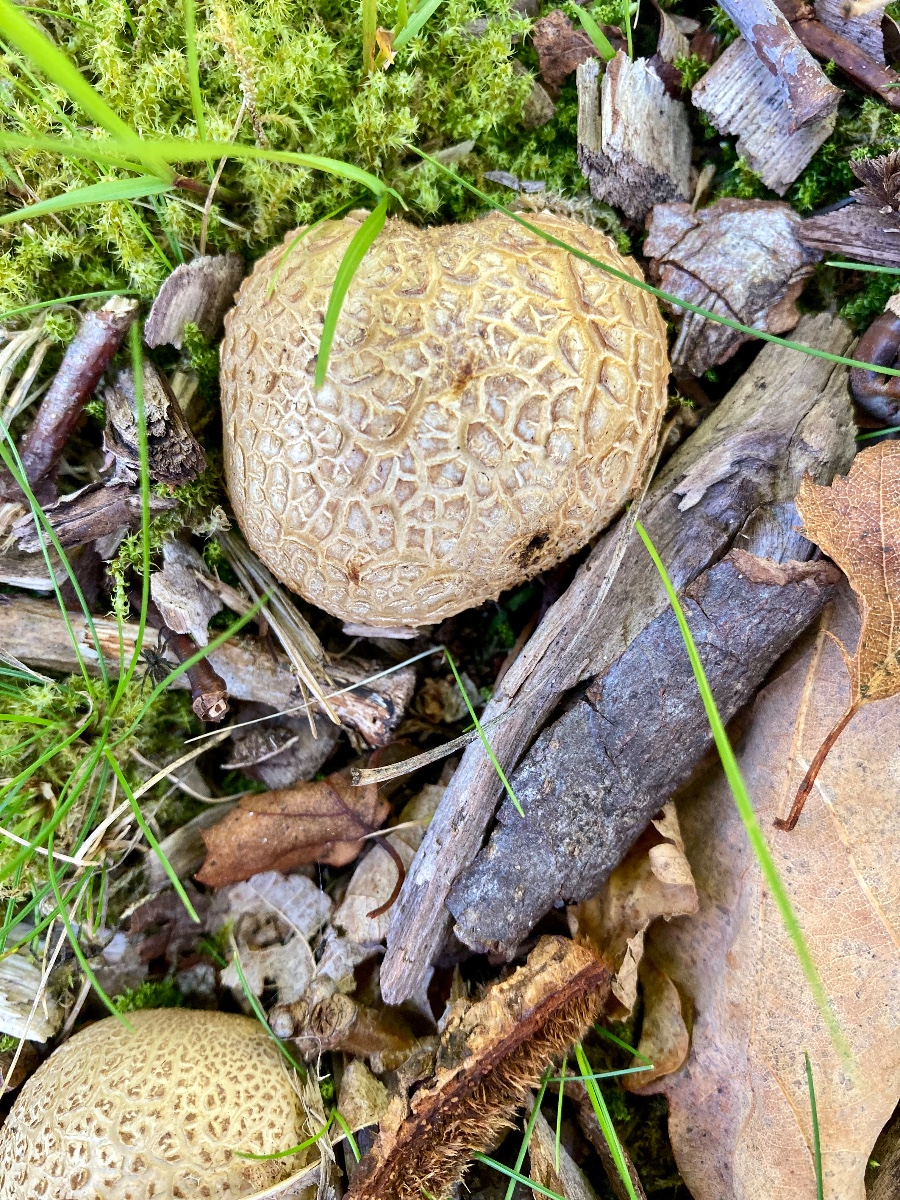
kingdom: Fungi
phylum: Basidiomycota
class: Agaricomycetes
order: Boletales
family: Sclerodermataceae
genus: Scleroderma
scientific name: Scleroderma citrinum
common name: almindelig bruskbold
